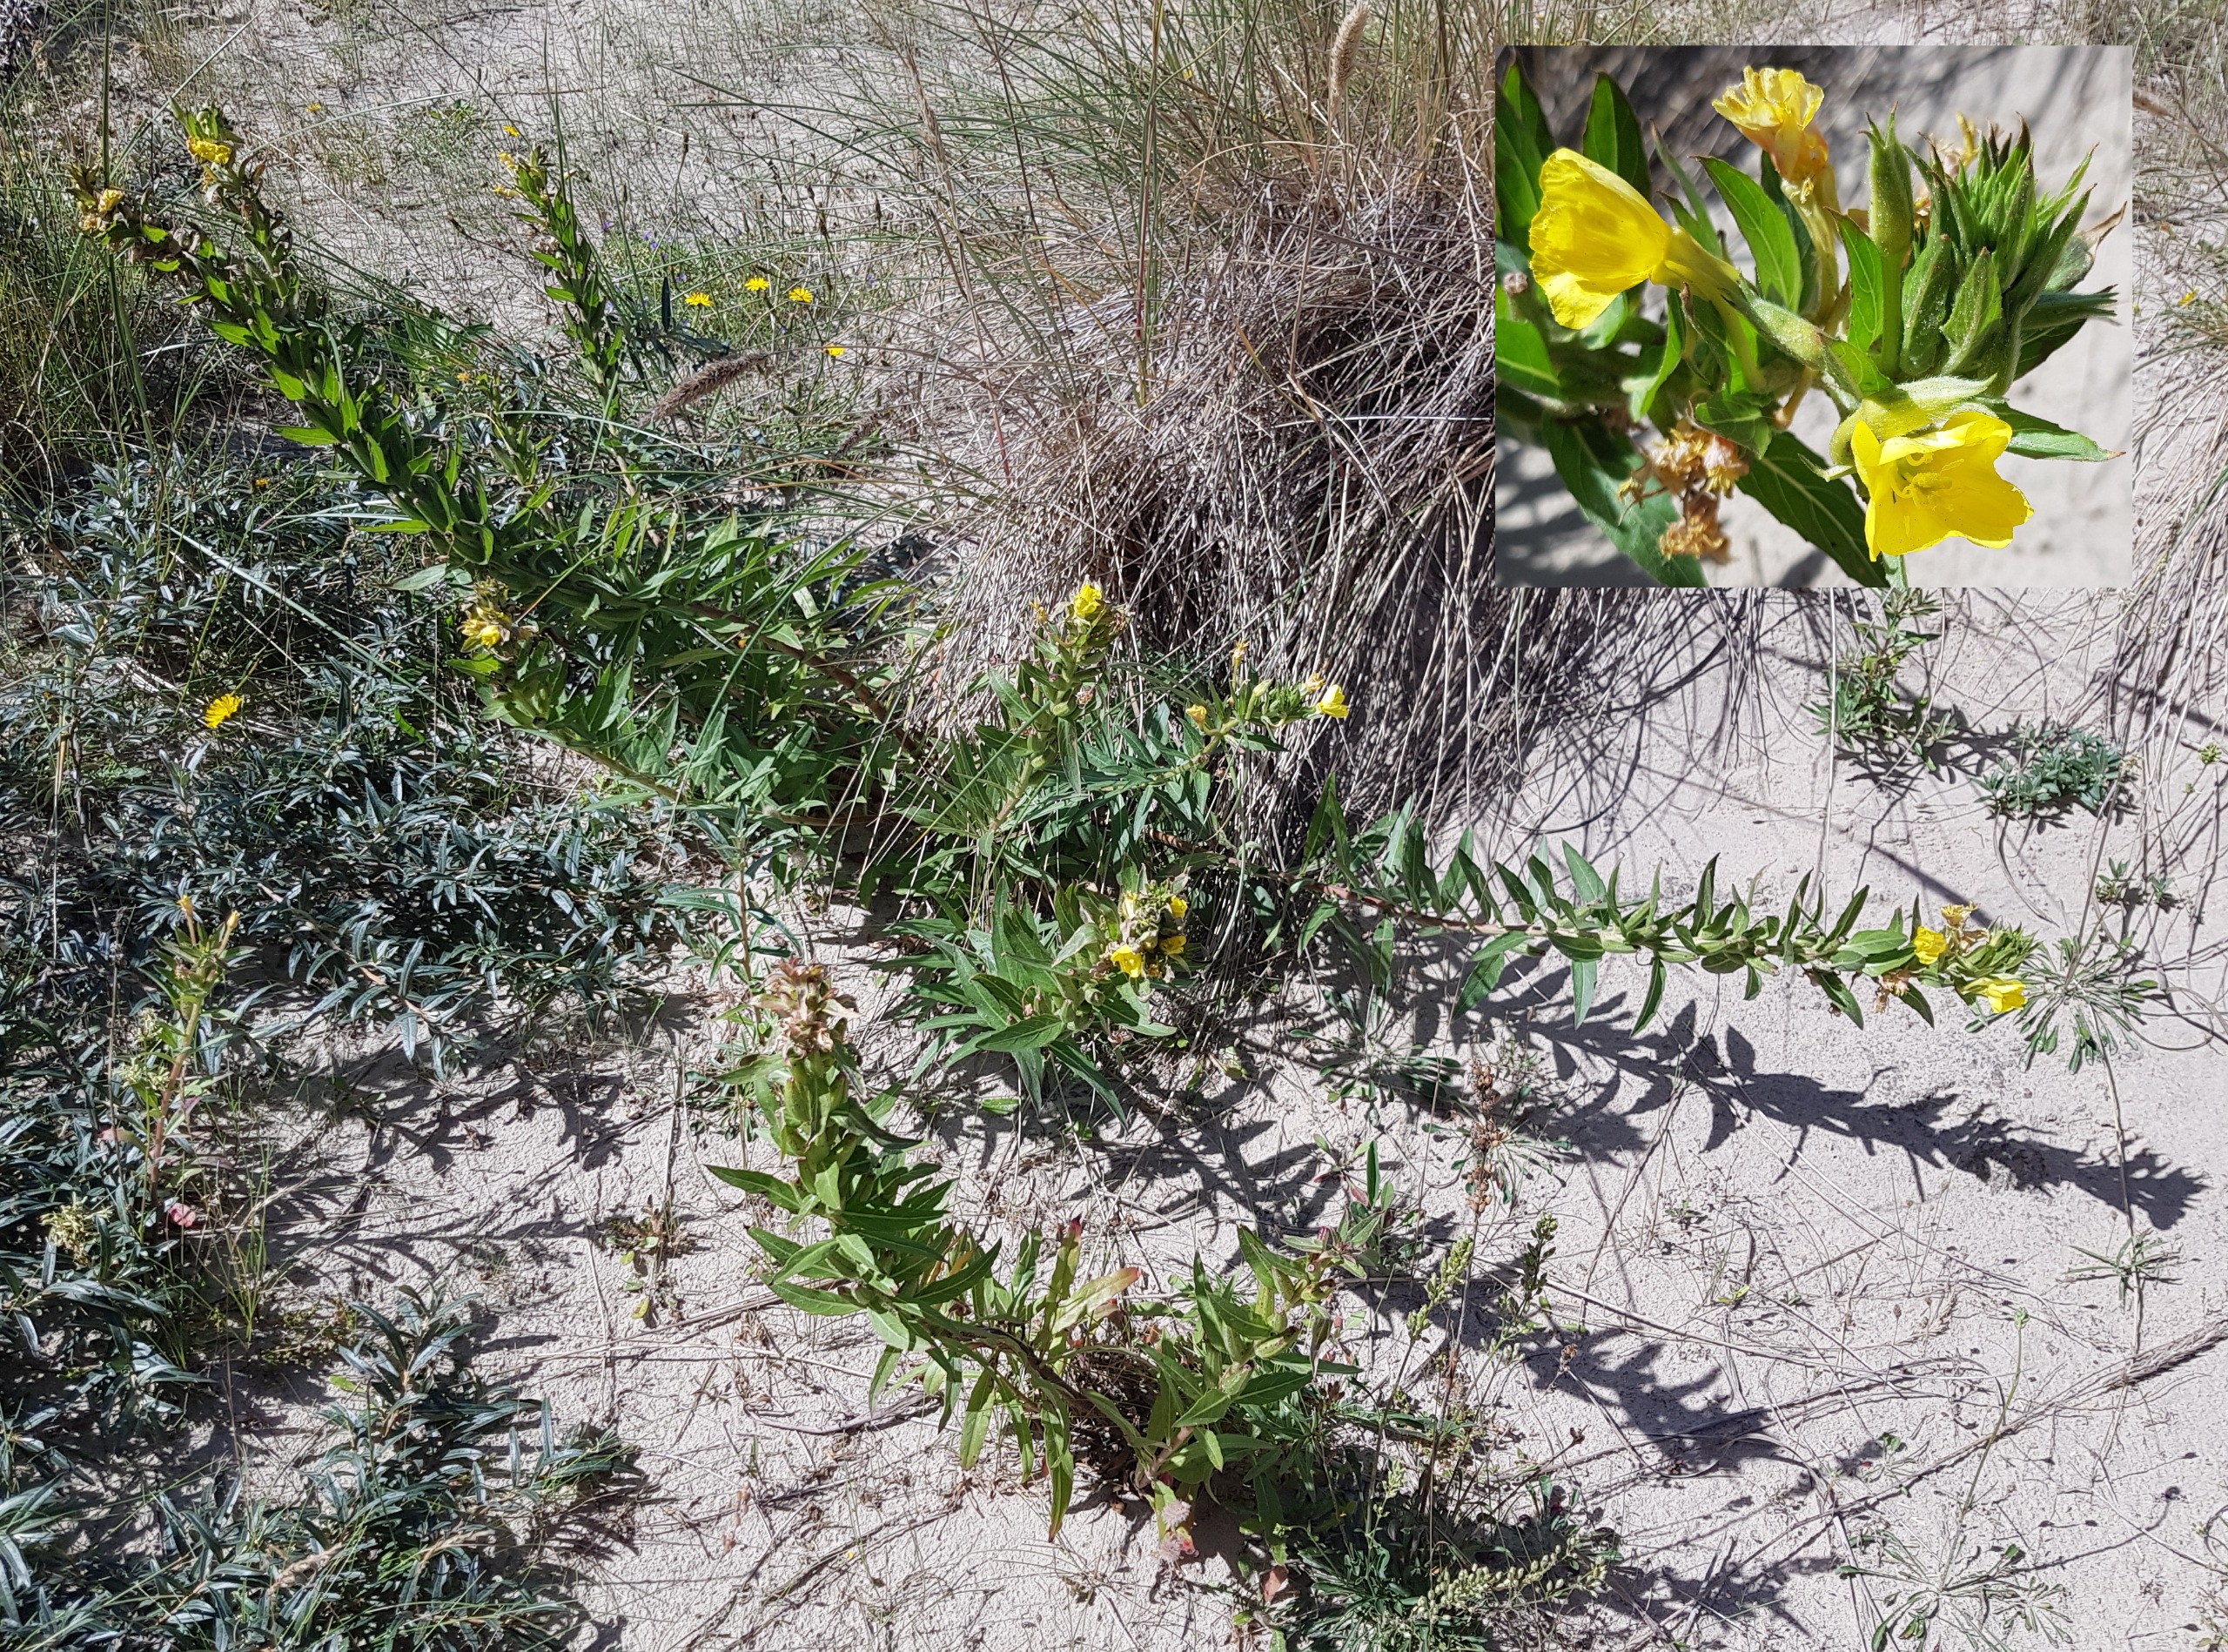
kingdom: Plantae
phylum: Tracheophyta
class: Magnoliopsida
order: Myrtales
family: Onagraceae
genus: Oenothera
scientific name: Oenothera ammophila
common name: Klit-natlys
